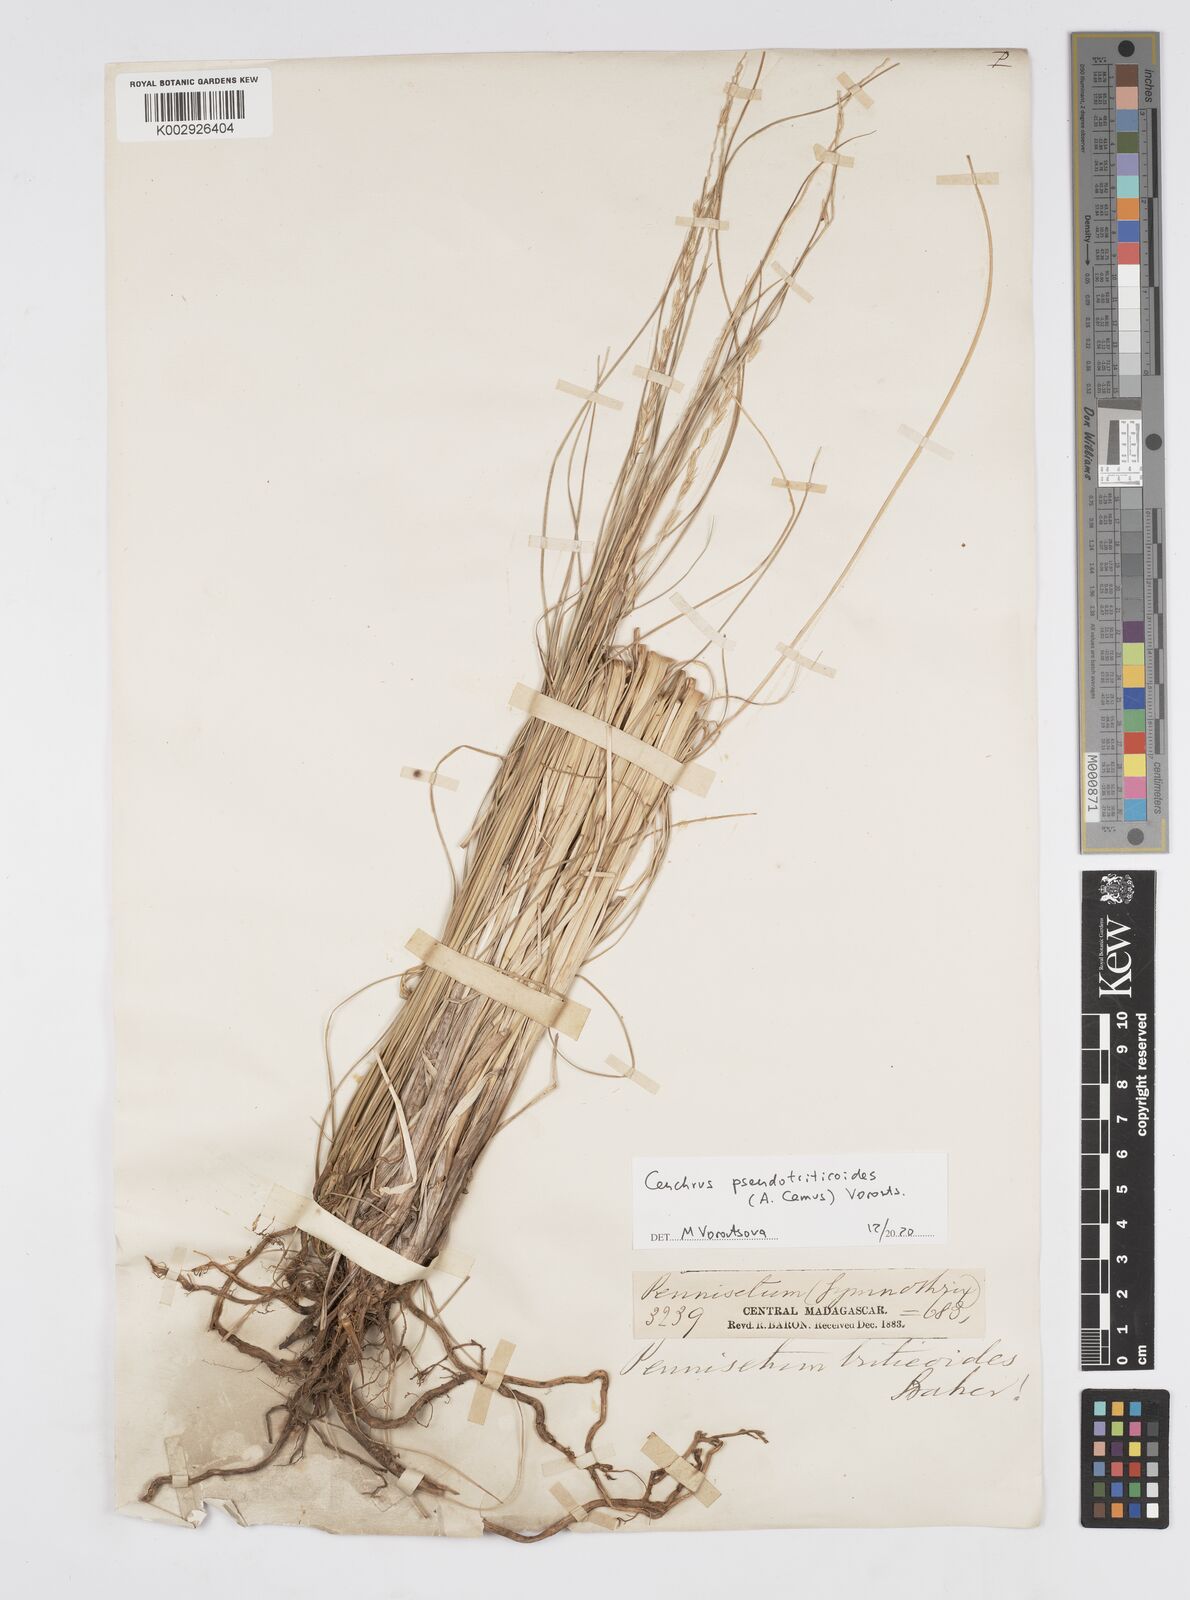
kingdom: Plantae
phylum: Tracheophyta
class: Liliopsida
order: Poales
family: Poaceae
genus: Cenchrus
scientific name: Cenchrus pseudotriticoides
